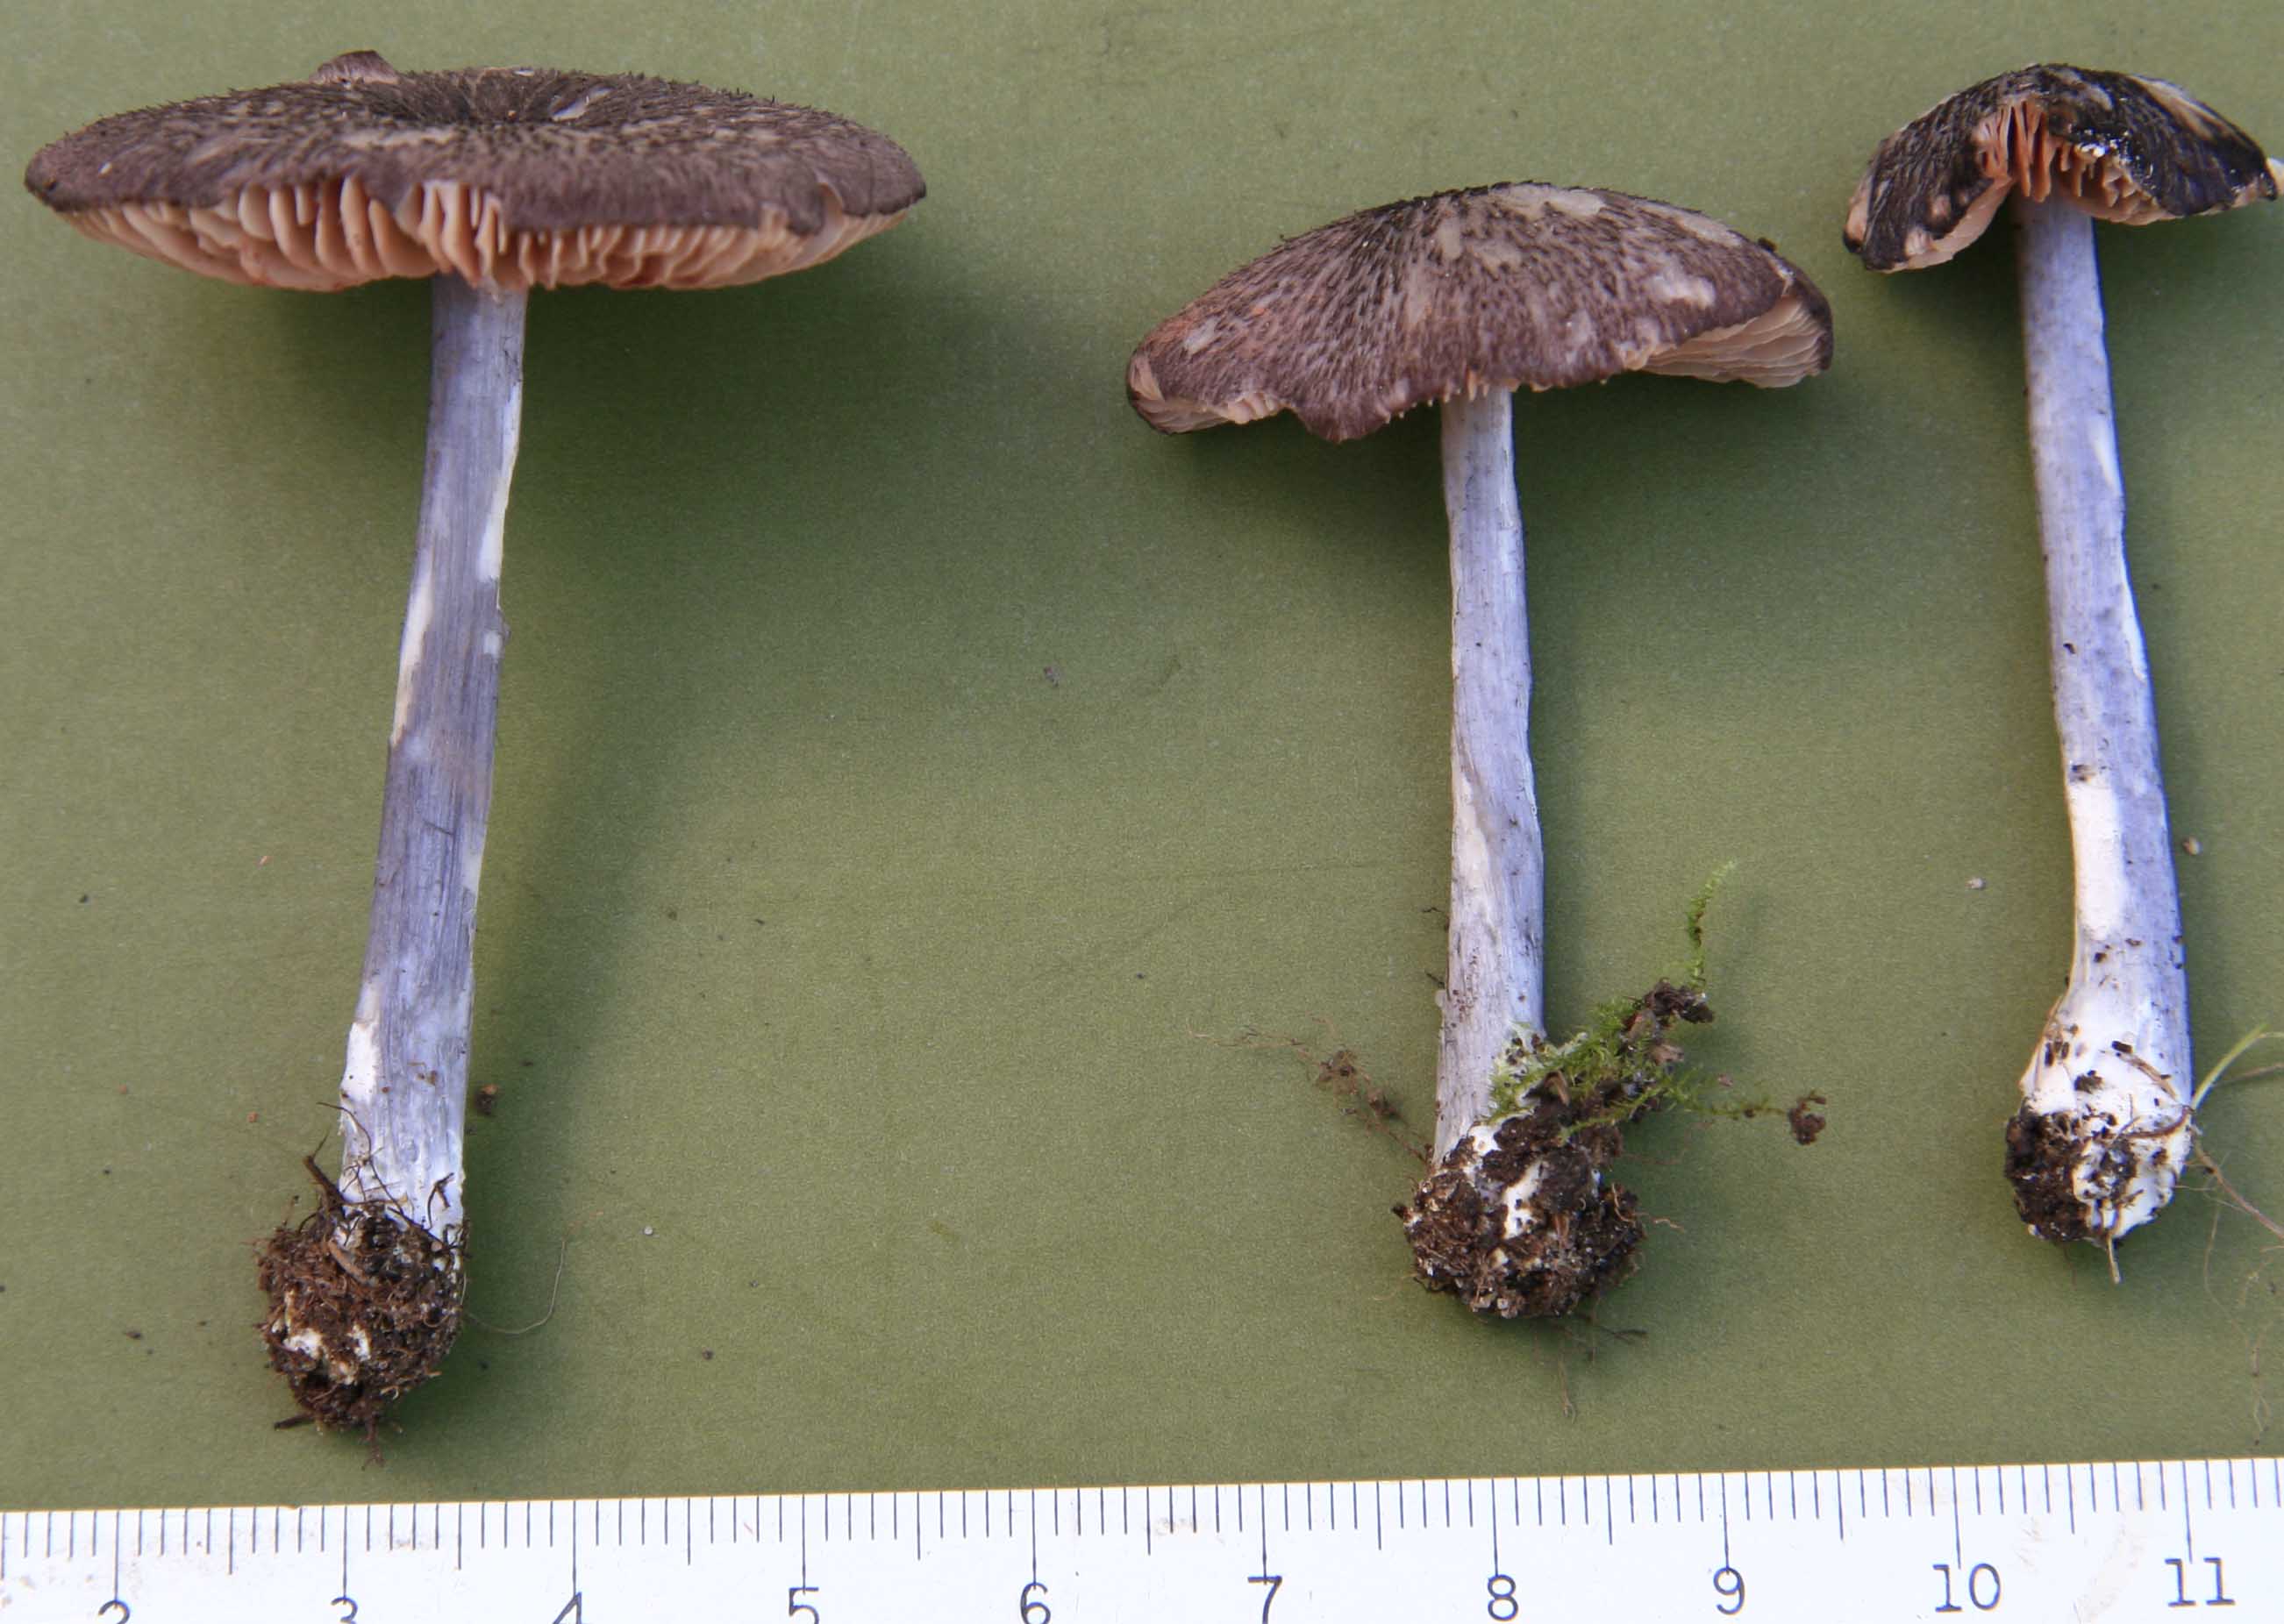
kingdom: Fungi
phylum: Basidiomycota
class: Agaricomycetes
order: Agaricales
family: Entolomataceae
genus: Entoloma
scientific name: Entoloma viiduense
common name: purpurbrun rødblad
